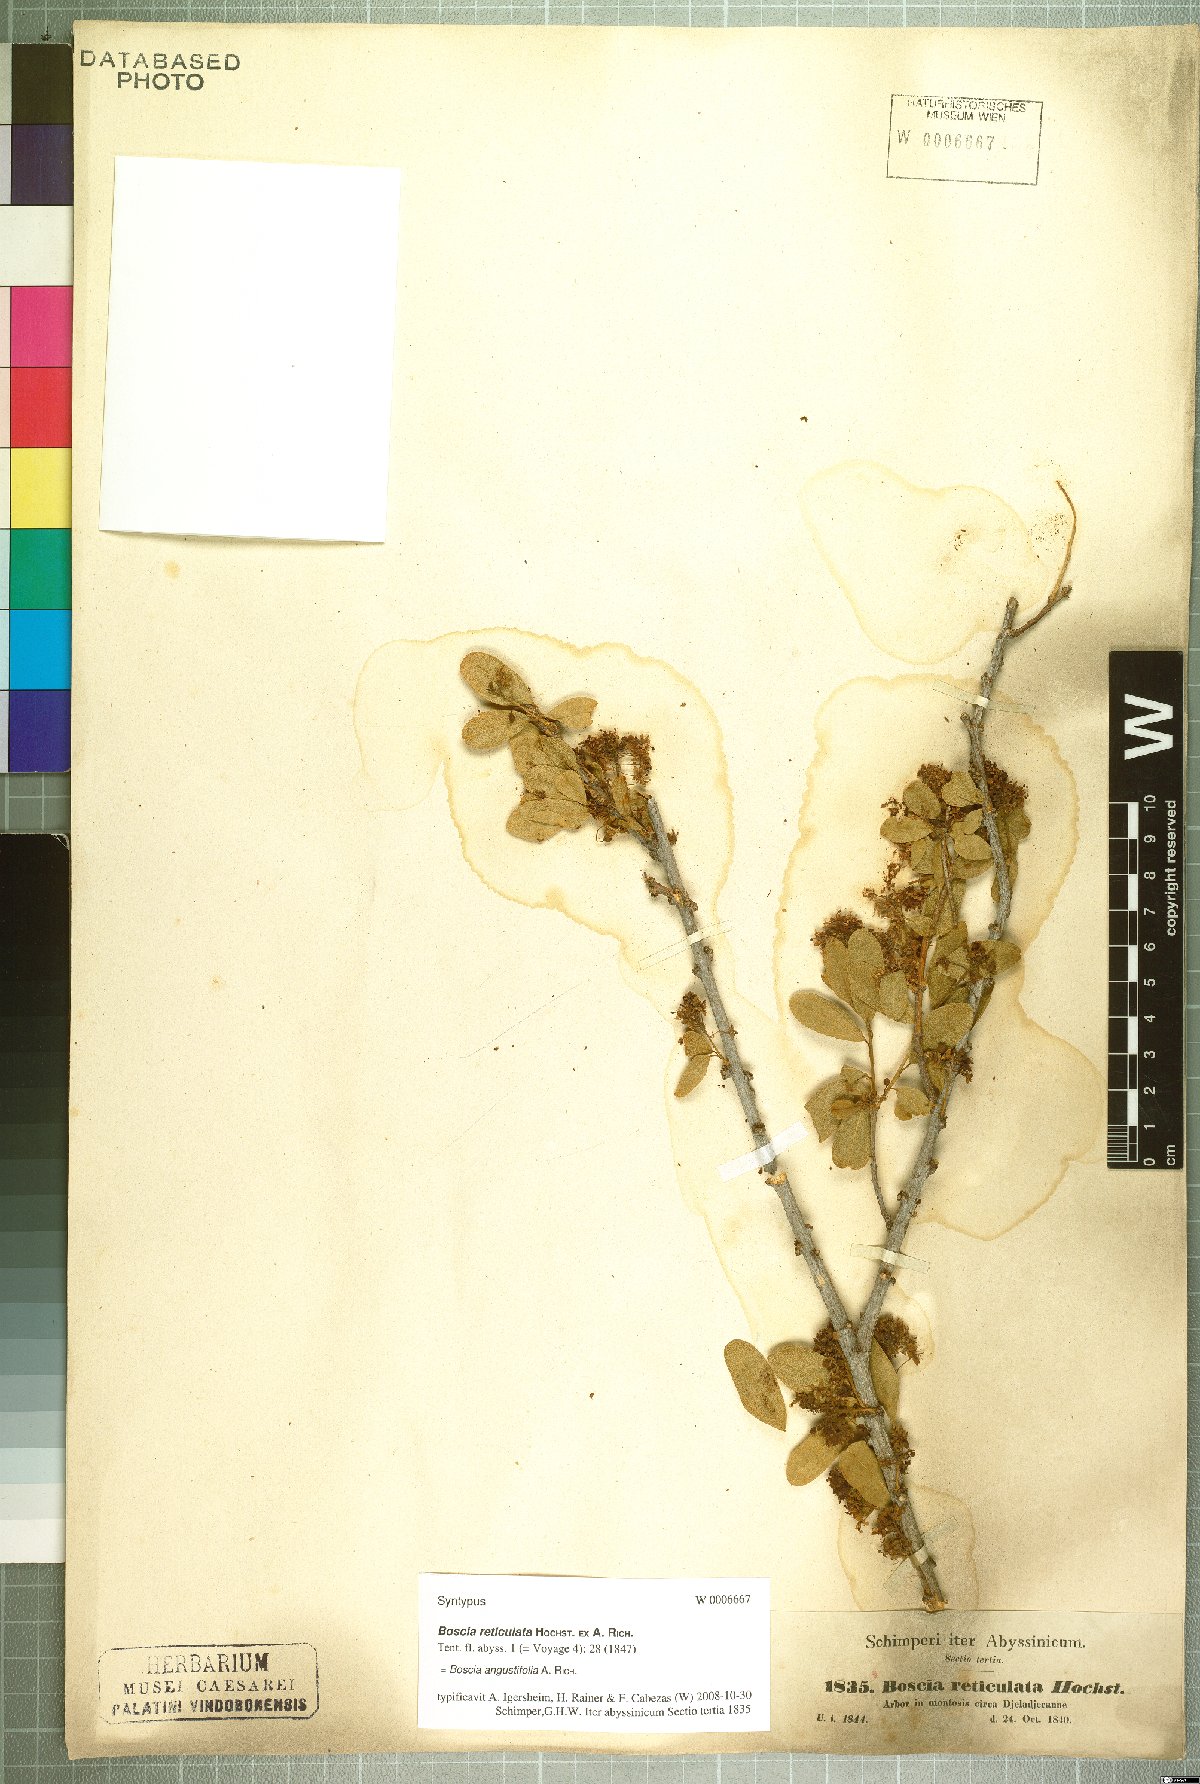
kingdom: Plantae
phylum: Tracheophyta
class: Magnoliopsida
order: Brassicales
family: Capparaceae
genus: Boscia
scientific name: Boscia angustifolia
